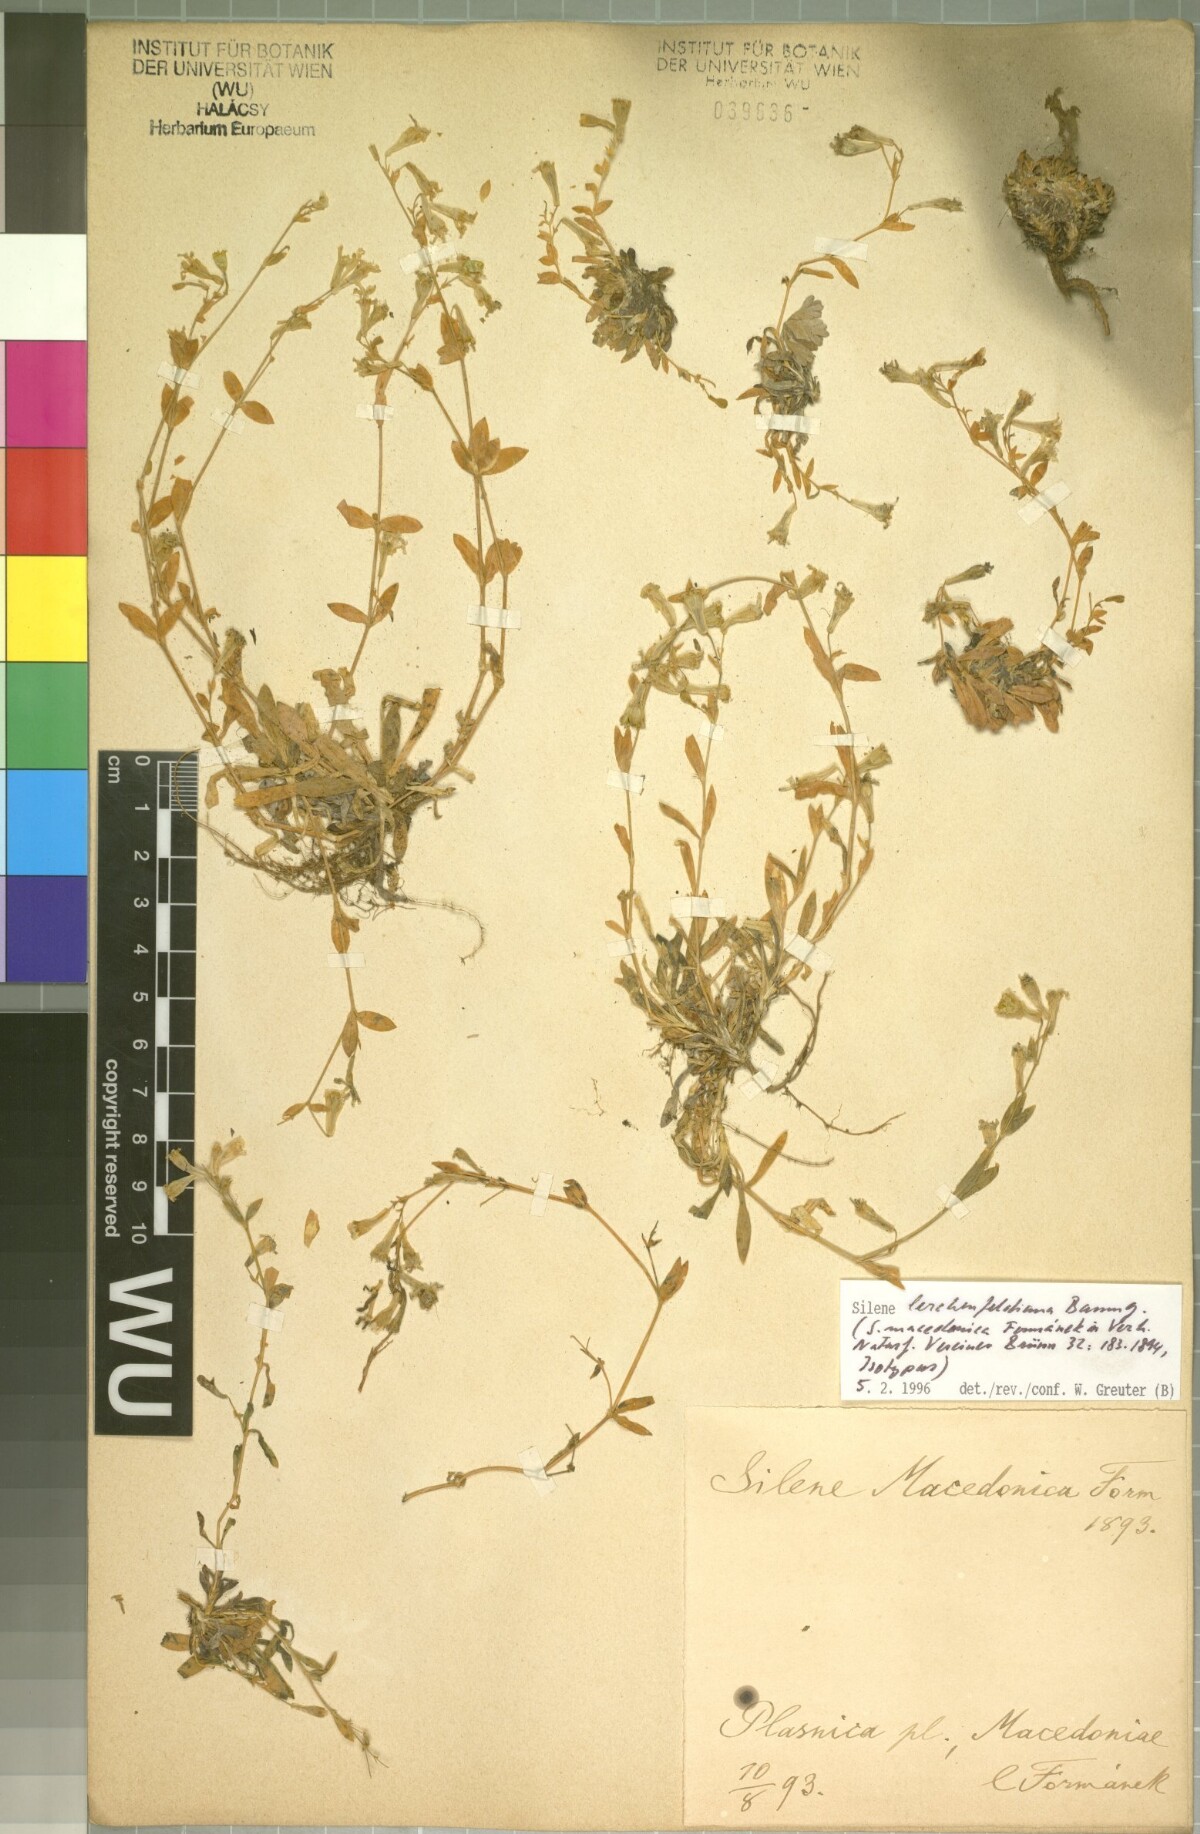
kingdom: Plantae
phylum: Tracheophyta
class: Magnoliopsida
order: Caryophyllales
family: Caryophyllaceae
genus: Atocion
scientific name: Atocion lerchenfeldianum
